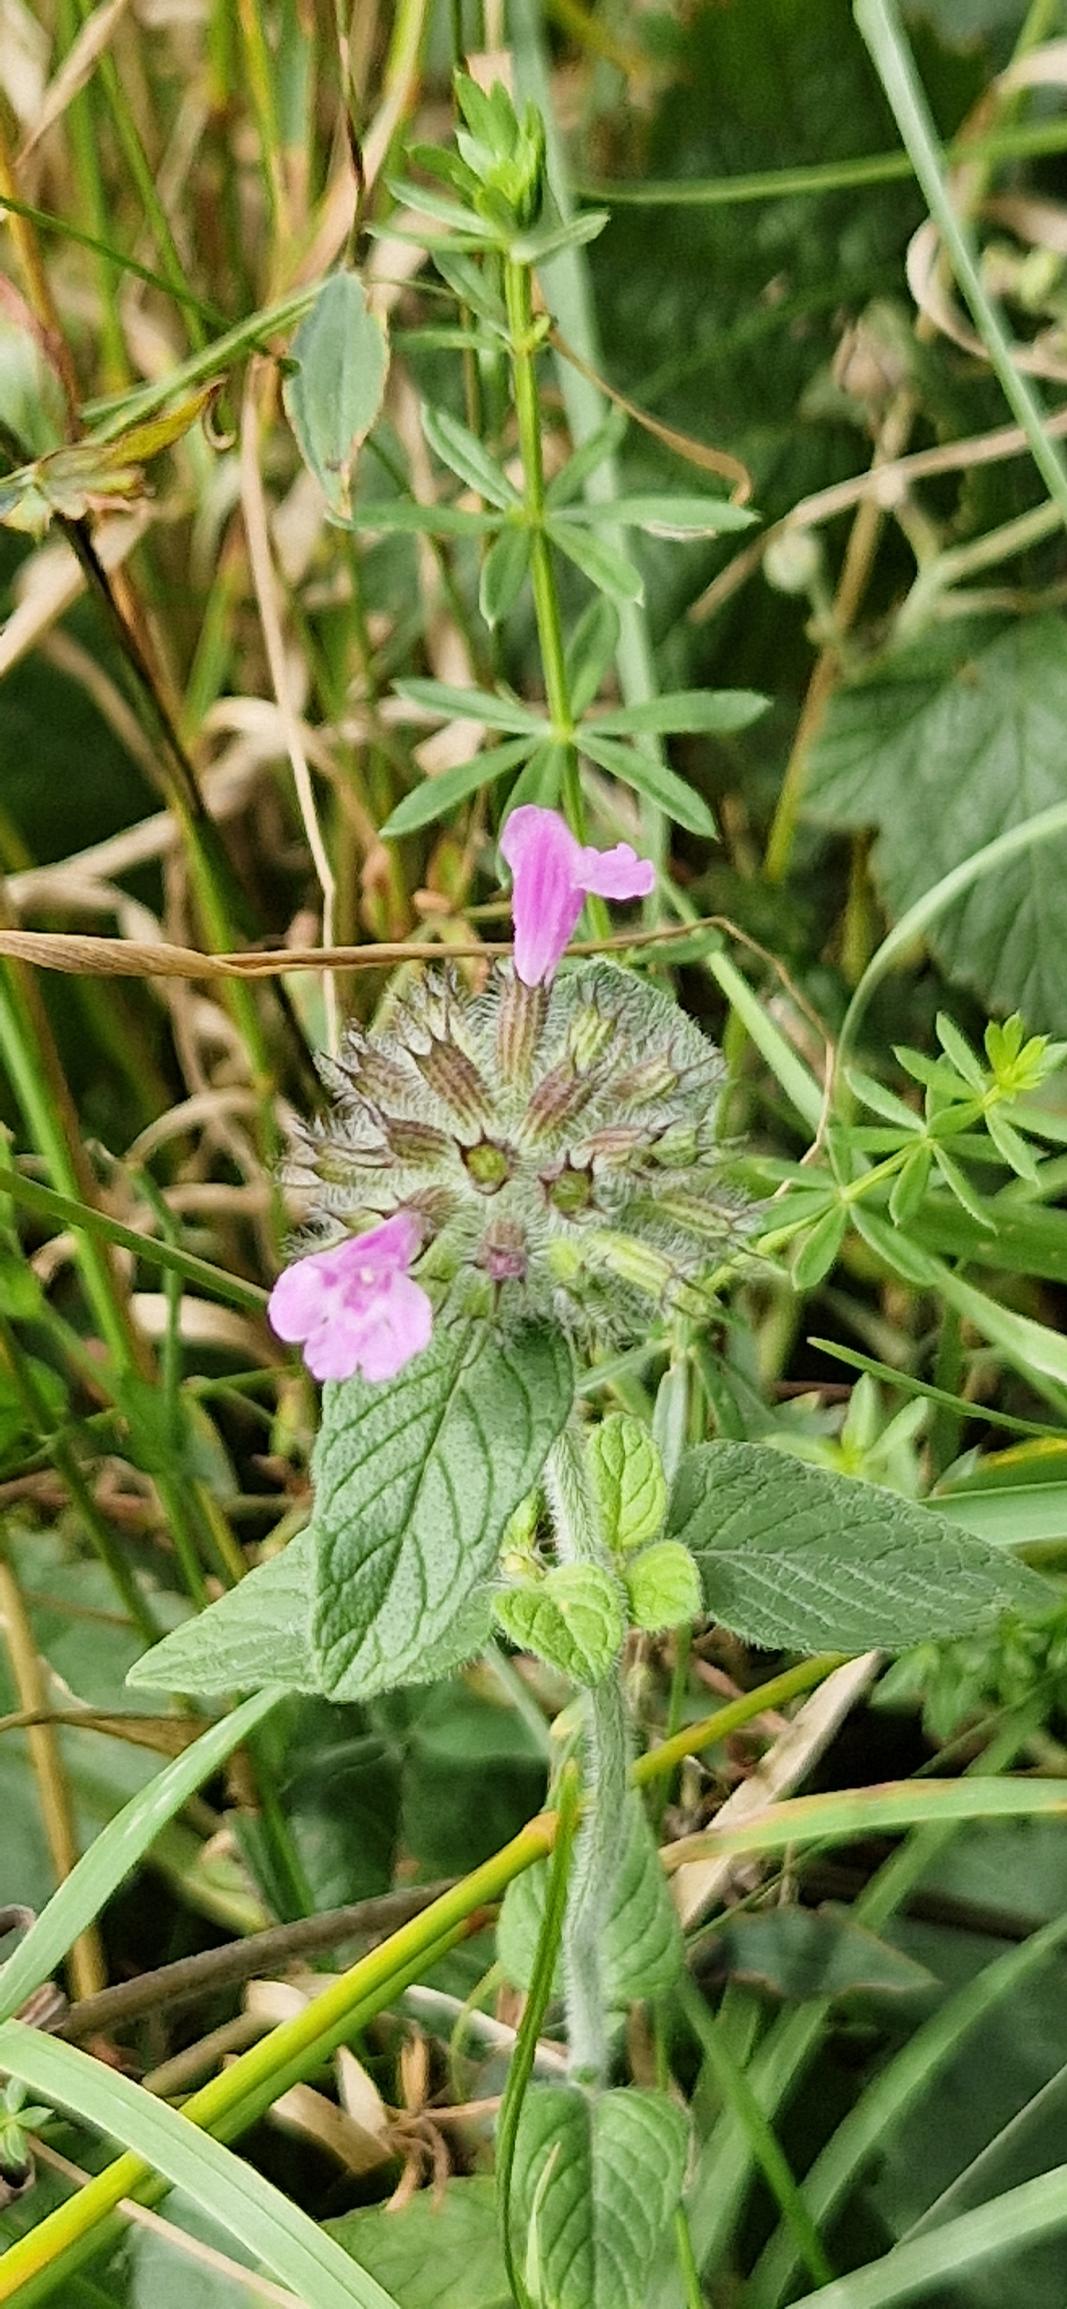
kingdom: Plantae
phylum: Tracheophyta
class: Magnoliopsida
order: Lamiales
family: Lamiaceae
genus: Clinopodium
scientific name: Clinopodium vulgare
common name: Kransbørste
